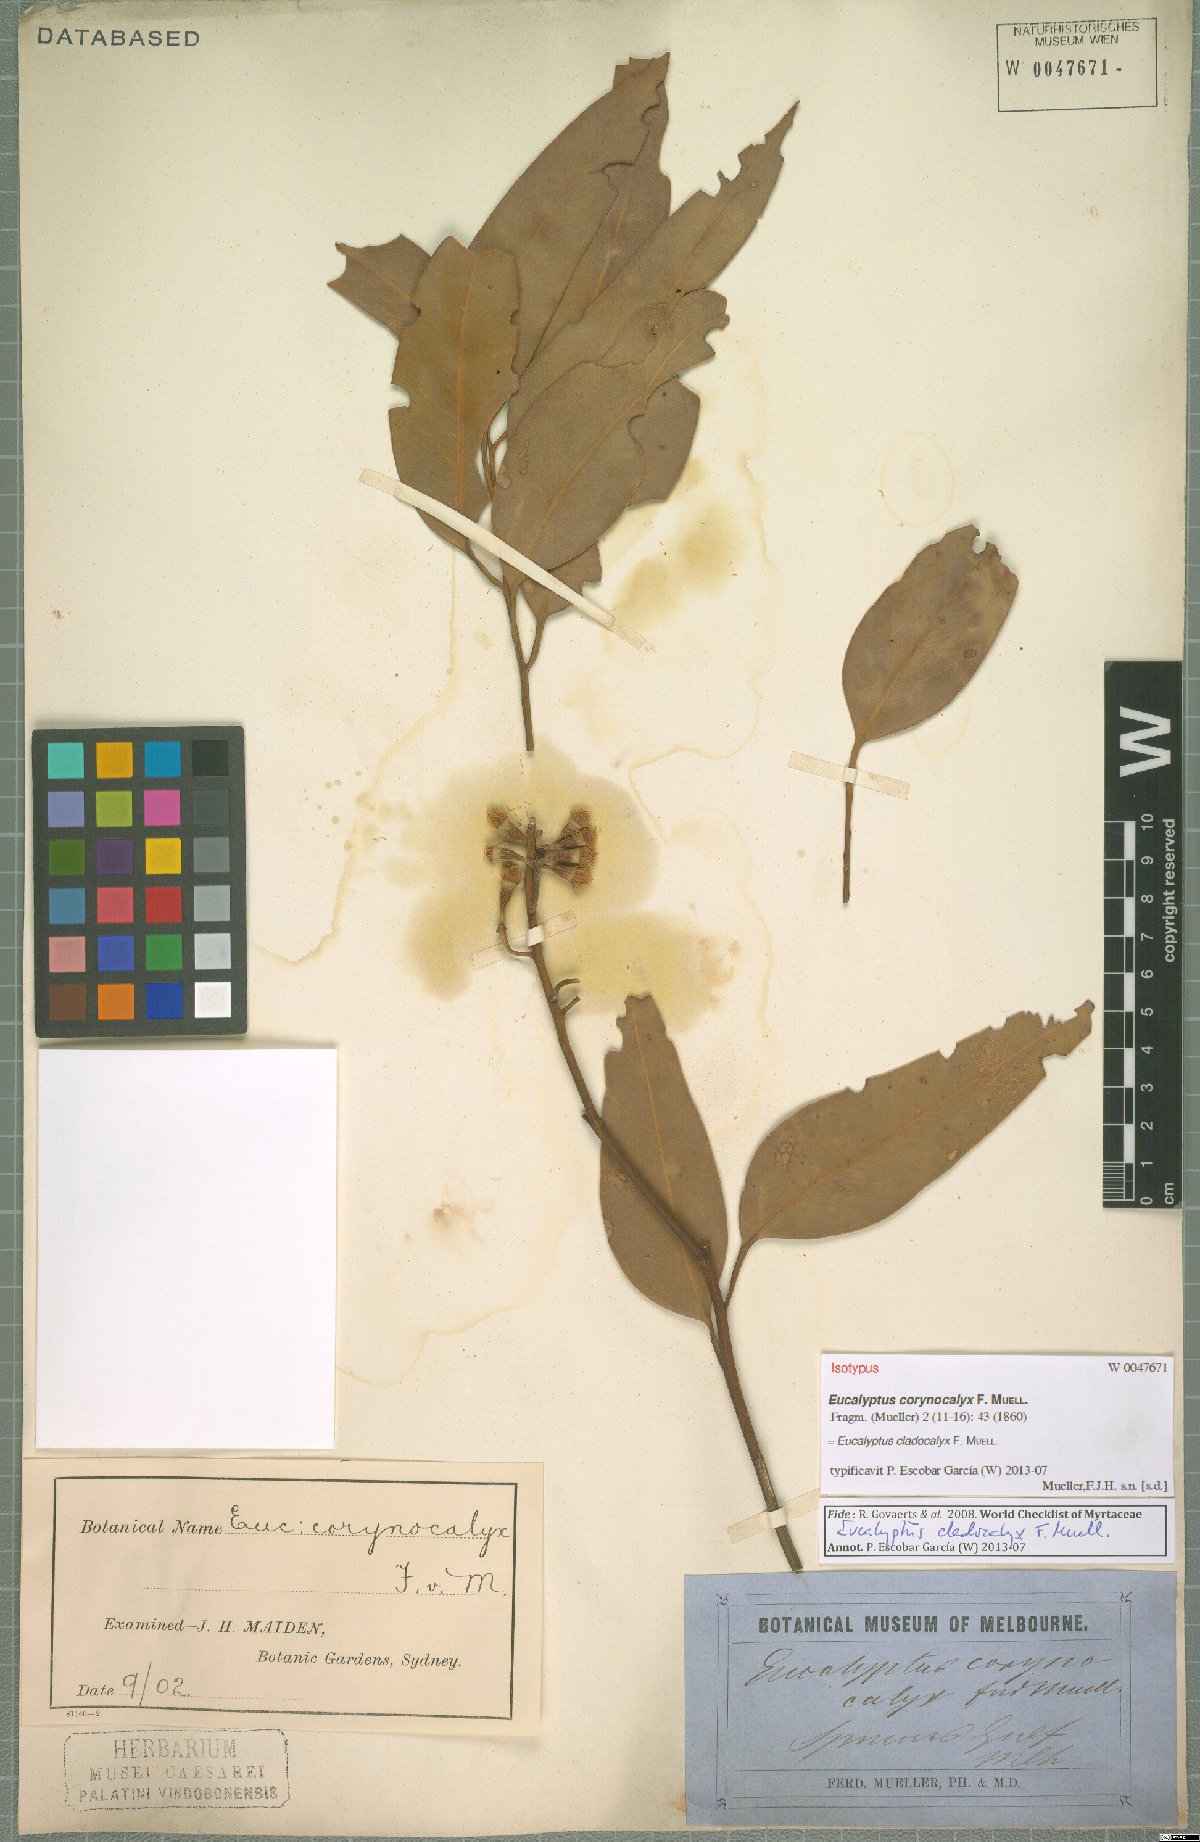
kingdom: Plantae
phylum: Tracheophyta
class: Magnoliopsida
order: Myrtales
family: Myrtaceae
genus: Eucalyptus
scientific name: Eucalyptus cladocalyx
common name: Sugargum
